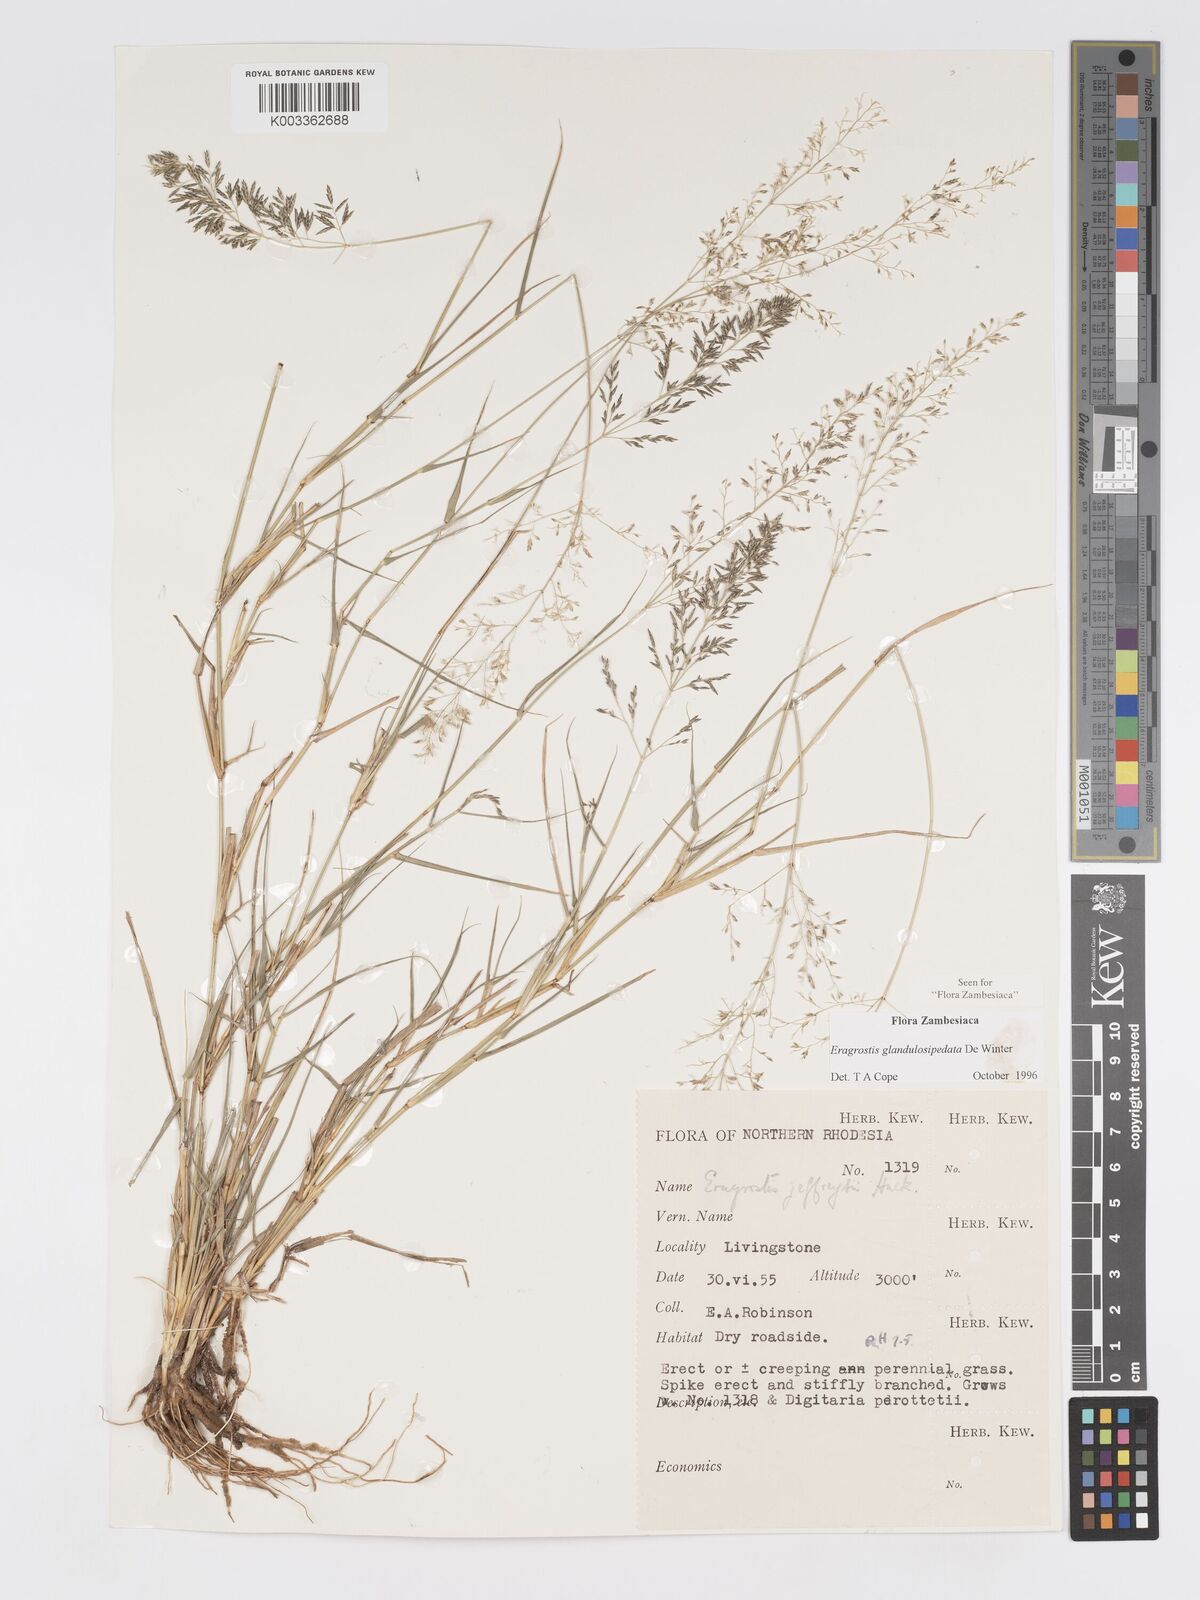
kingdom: Plantae
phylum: Tracheophyta
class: Liliopsida
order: Poales
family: Poaceae
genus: Eragrostis
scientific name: Eragrostis glandulosipedata
